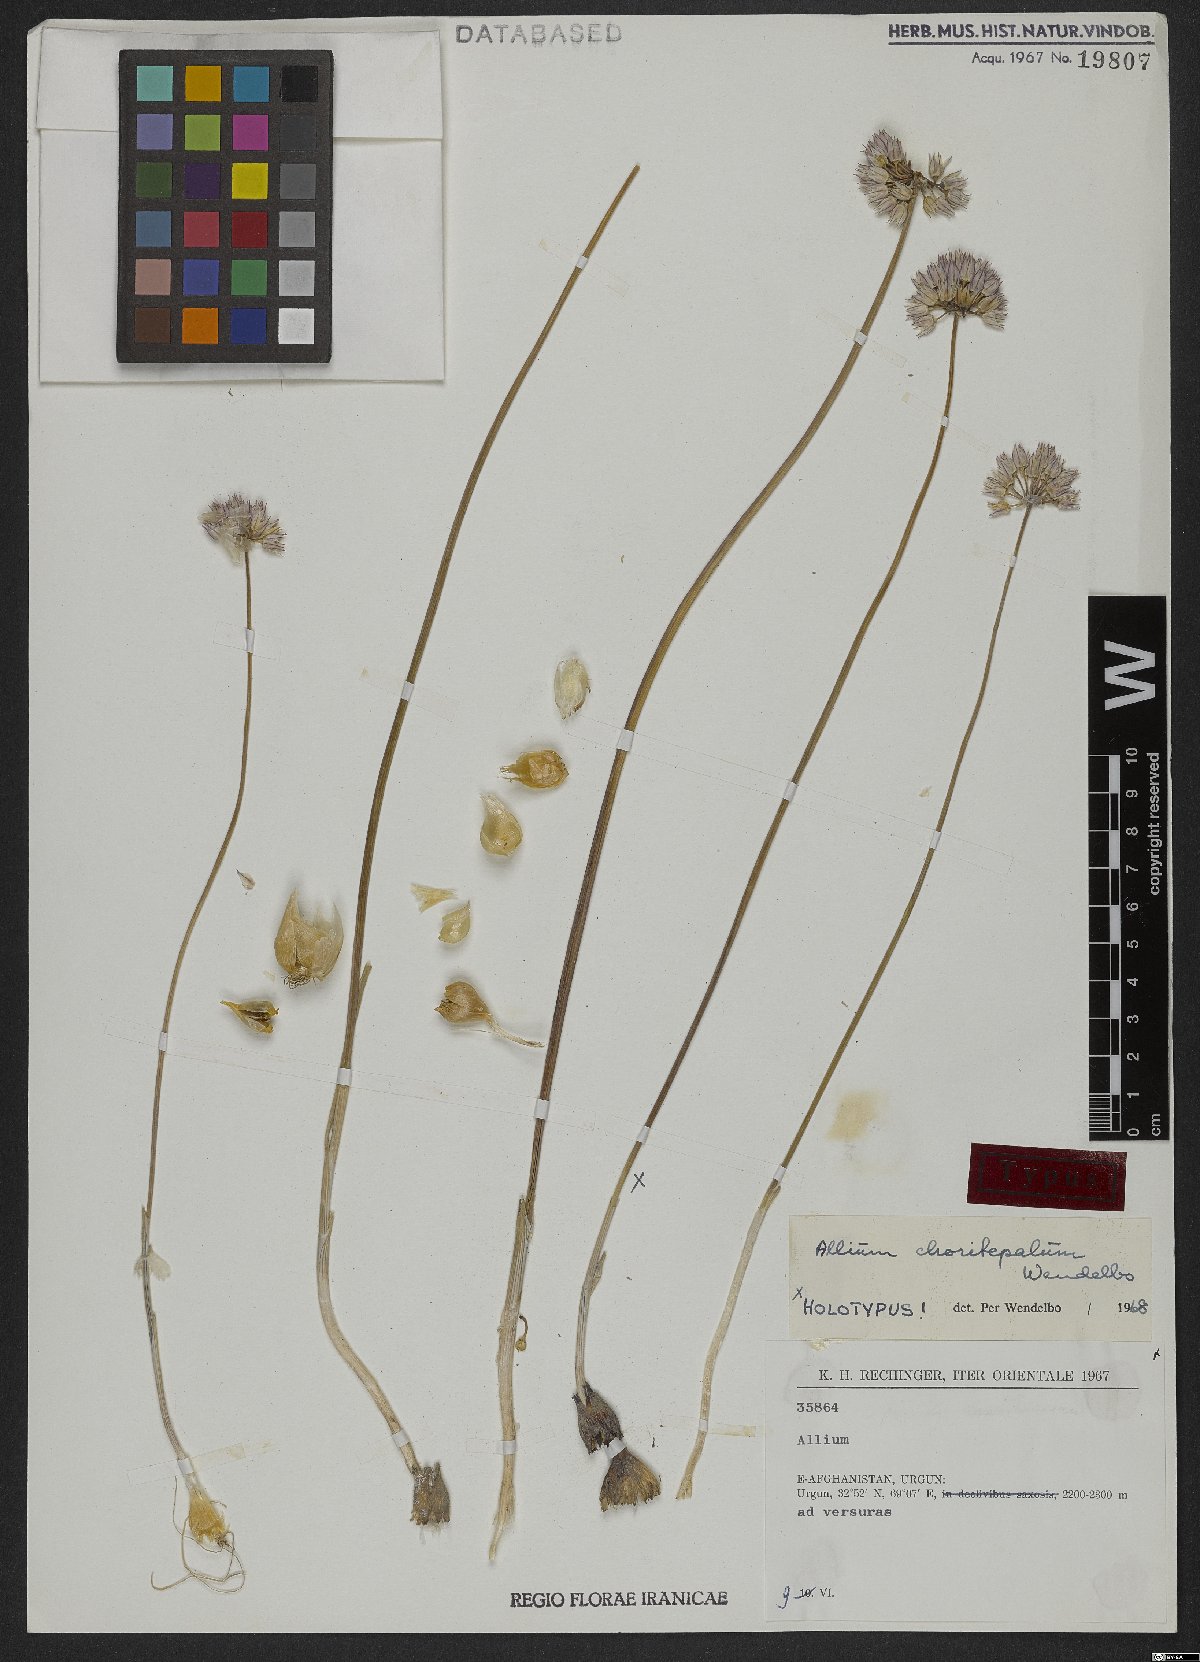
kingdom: Plantae
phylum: Tracheophyta
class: Liliopsida
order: Asparagales
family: Amaryllidaceae
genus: Allium
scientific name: Allium choriotepalum
